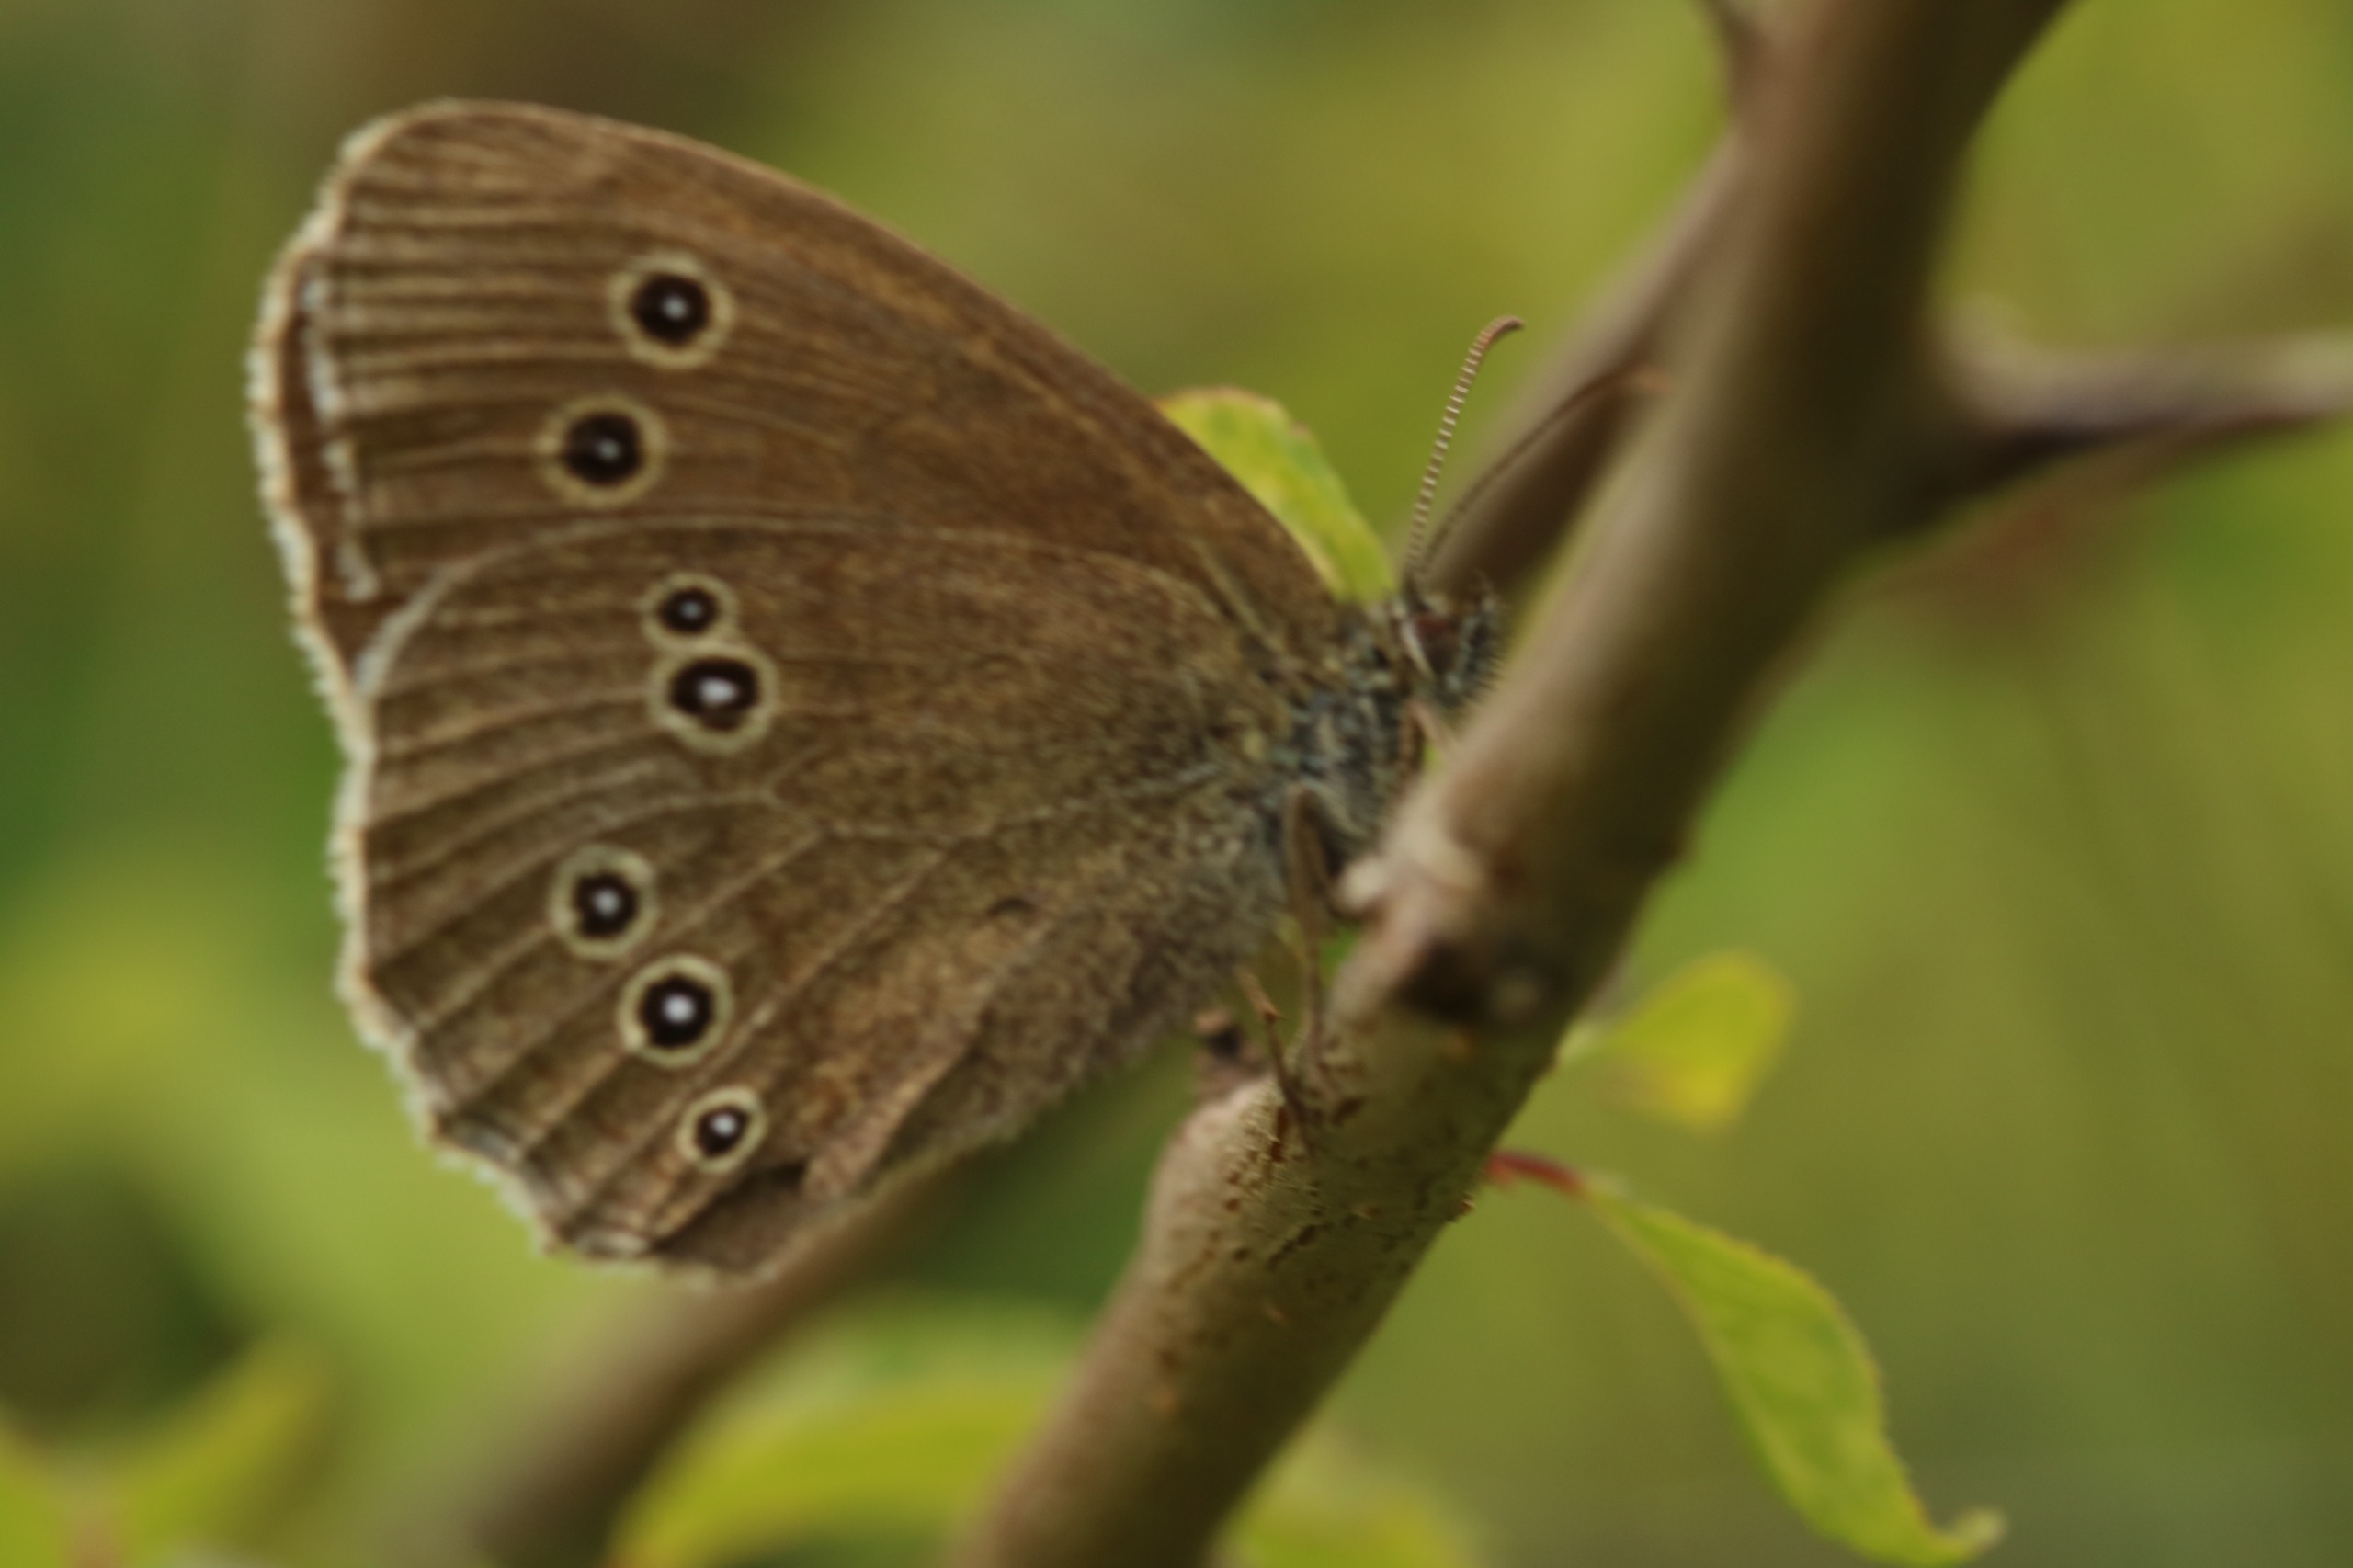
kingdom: Animalia
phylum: Arthropoda
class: Insecta
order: Lepidoptera
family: Nymphalidae
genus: Aphantopus
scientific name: Aphantopus hyperantus
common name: Engrandøje
